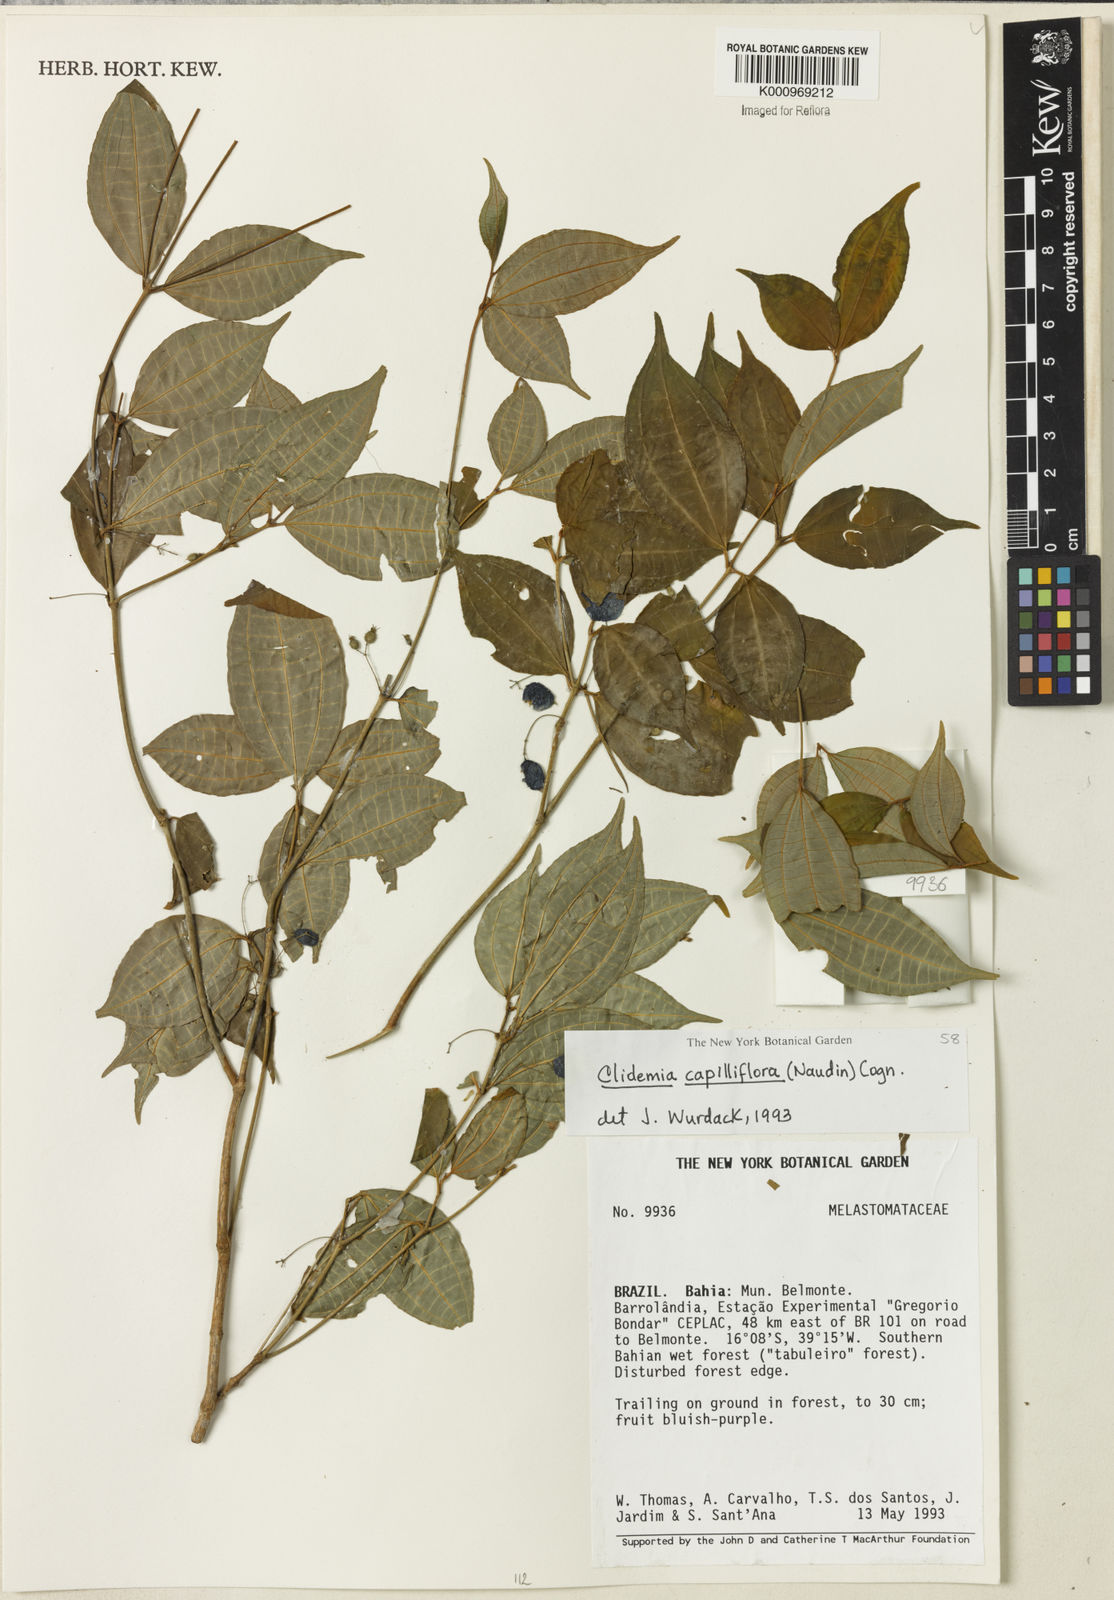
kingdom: Plantae
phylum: Tracheophyta
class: Magnoliopsida
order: Myrtales
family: Melastomataceae
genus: Miconia
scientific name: Miconia capilliflora
